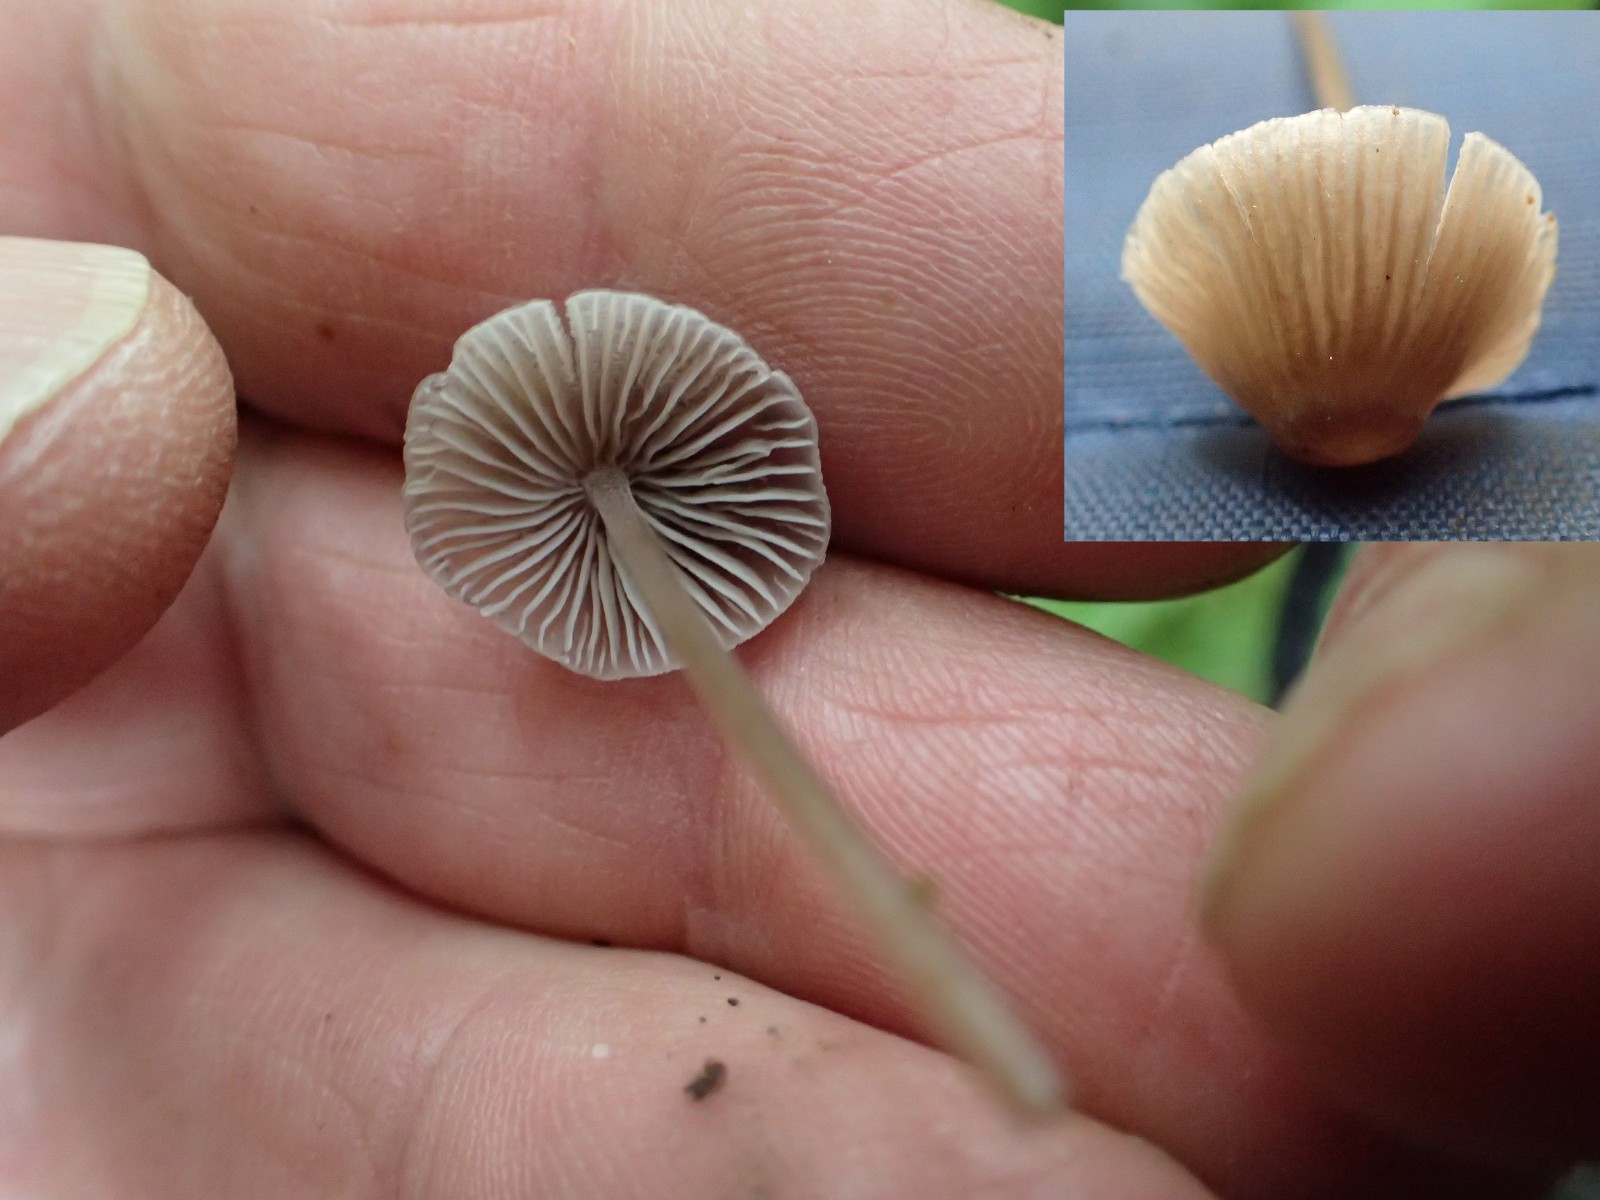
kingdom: Fungi
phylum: Basidiomycota
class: Agaricomycetes
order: Agaricales
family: Mycenaceae
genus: Mycena
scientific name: Mycena leptocephala
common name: klor-huesvamp
